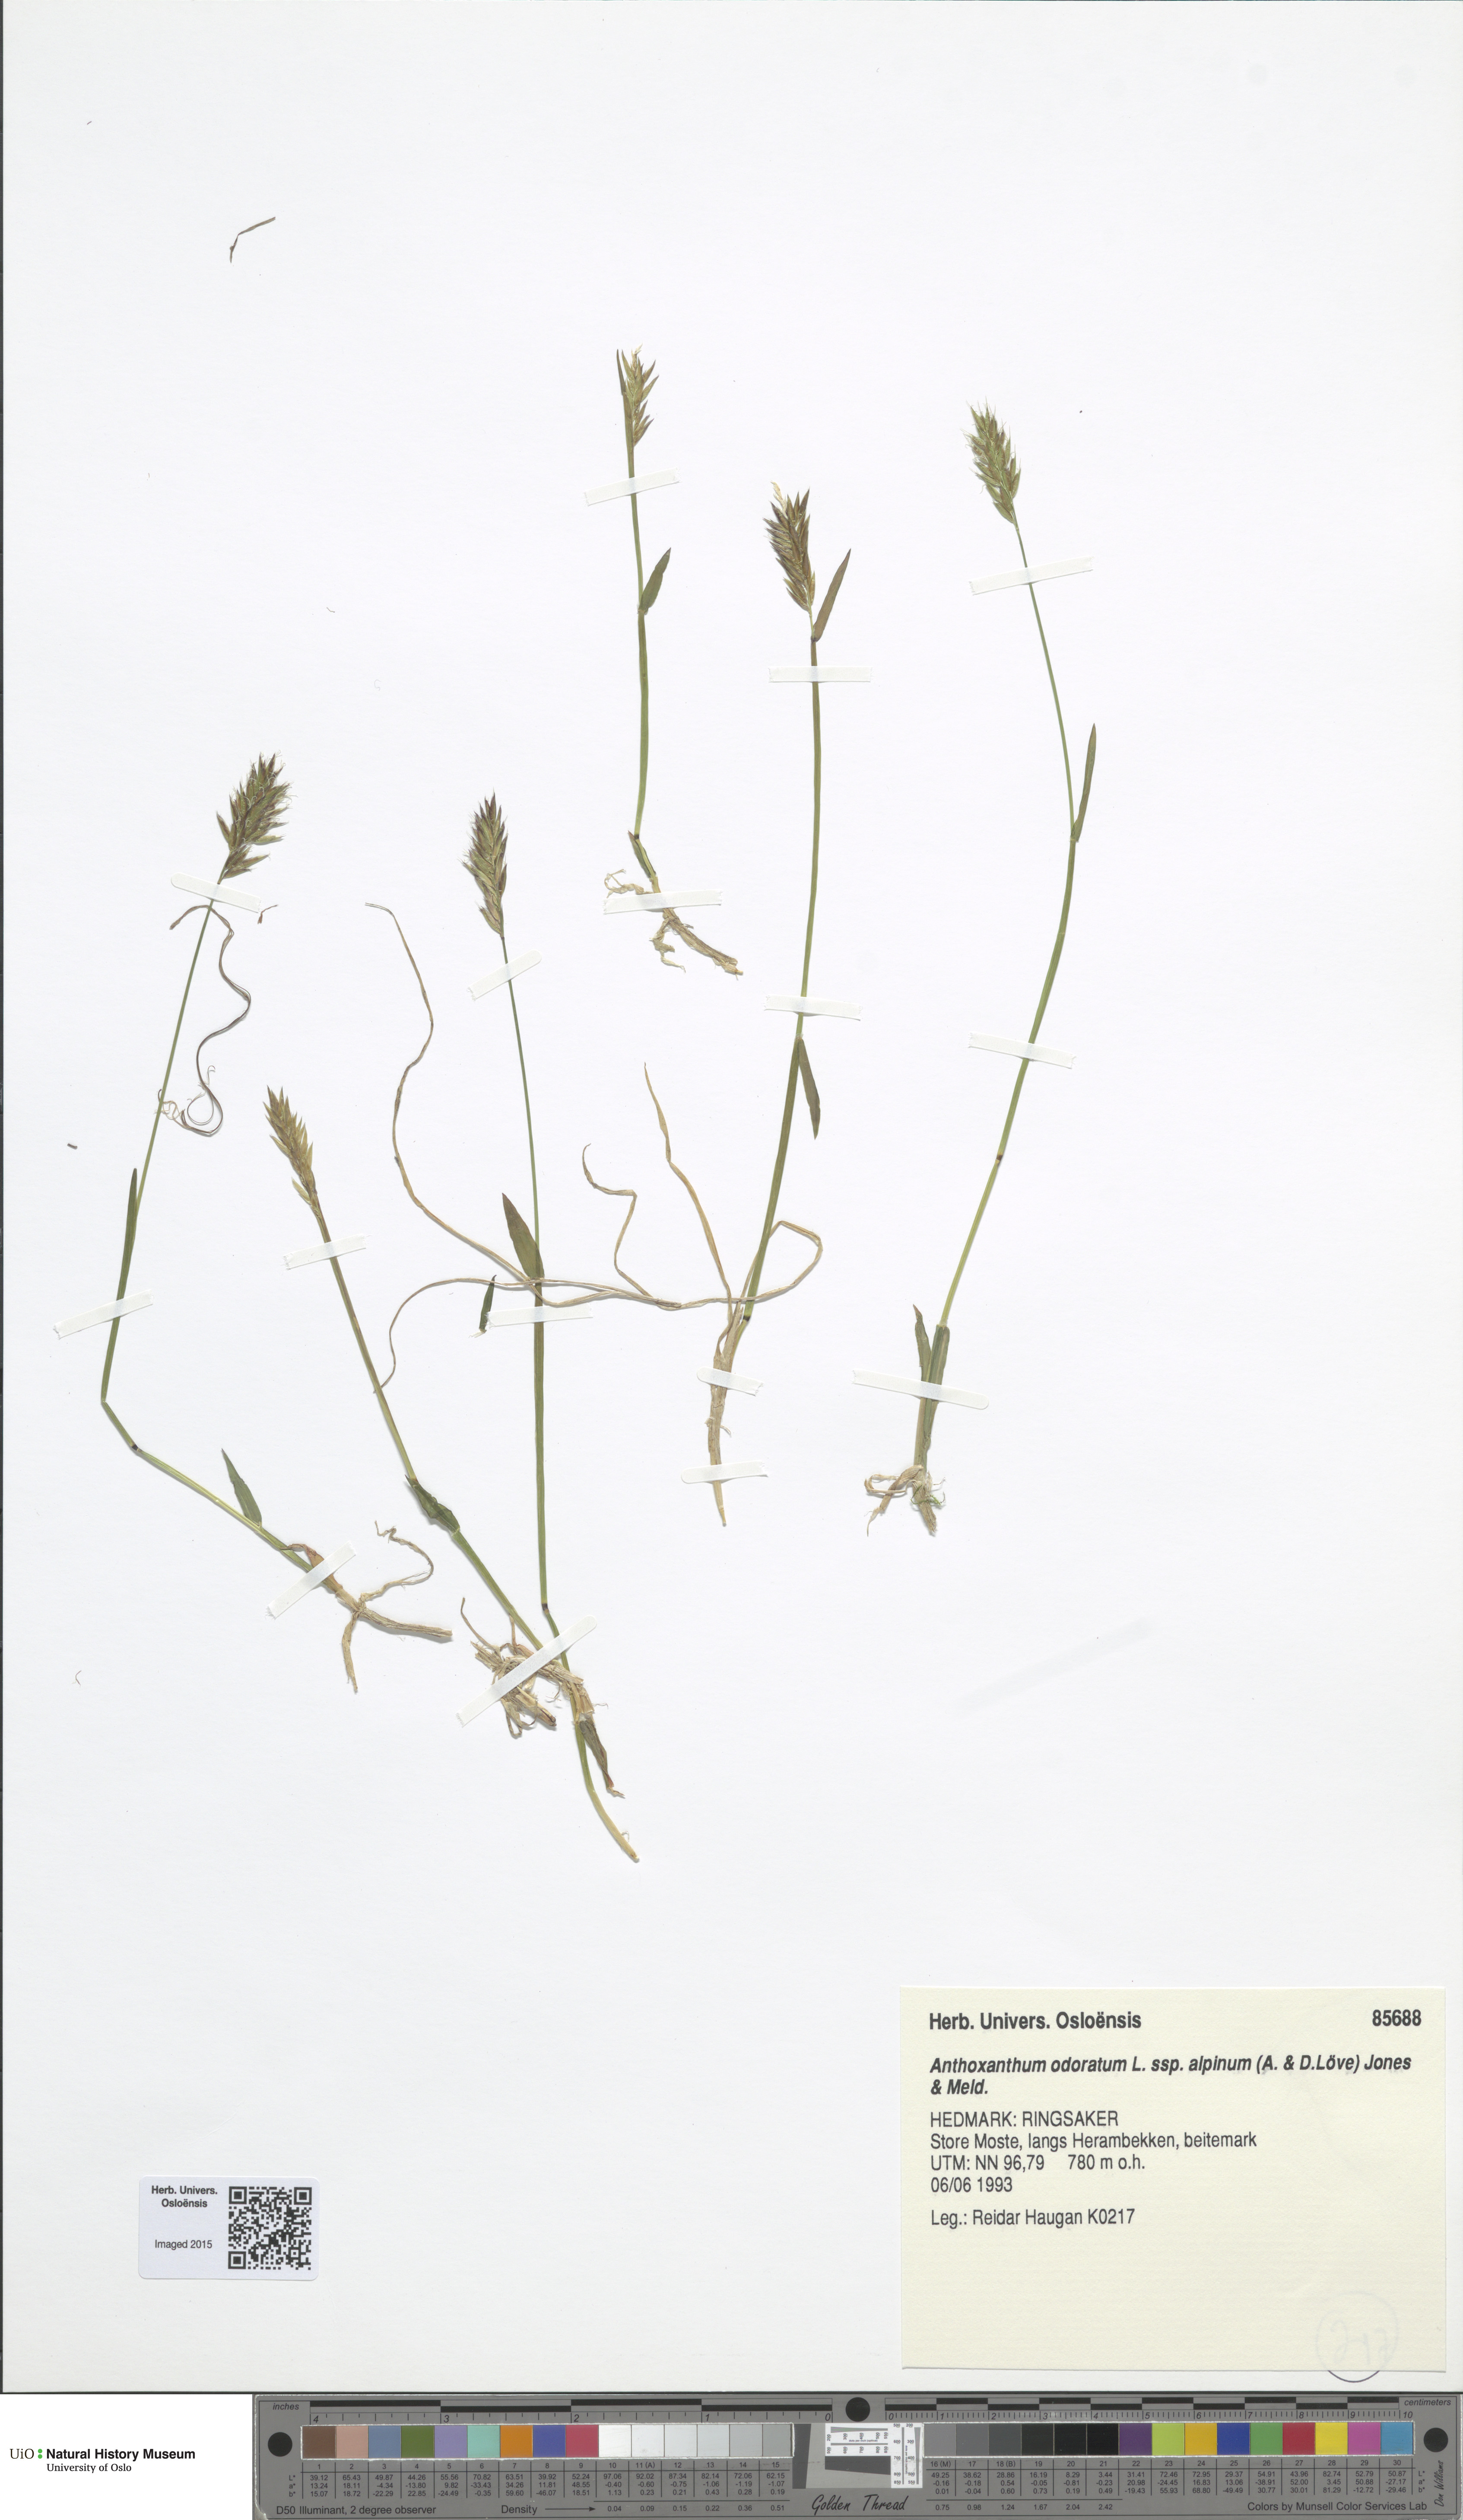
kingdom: Plantae
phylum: Tracheophyta
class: Liliopsida
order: Poales
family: Poaceae
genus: Anthoxanthum
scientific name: Anthoxanthum nipponicum
